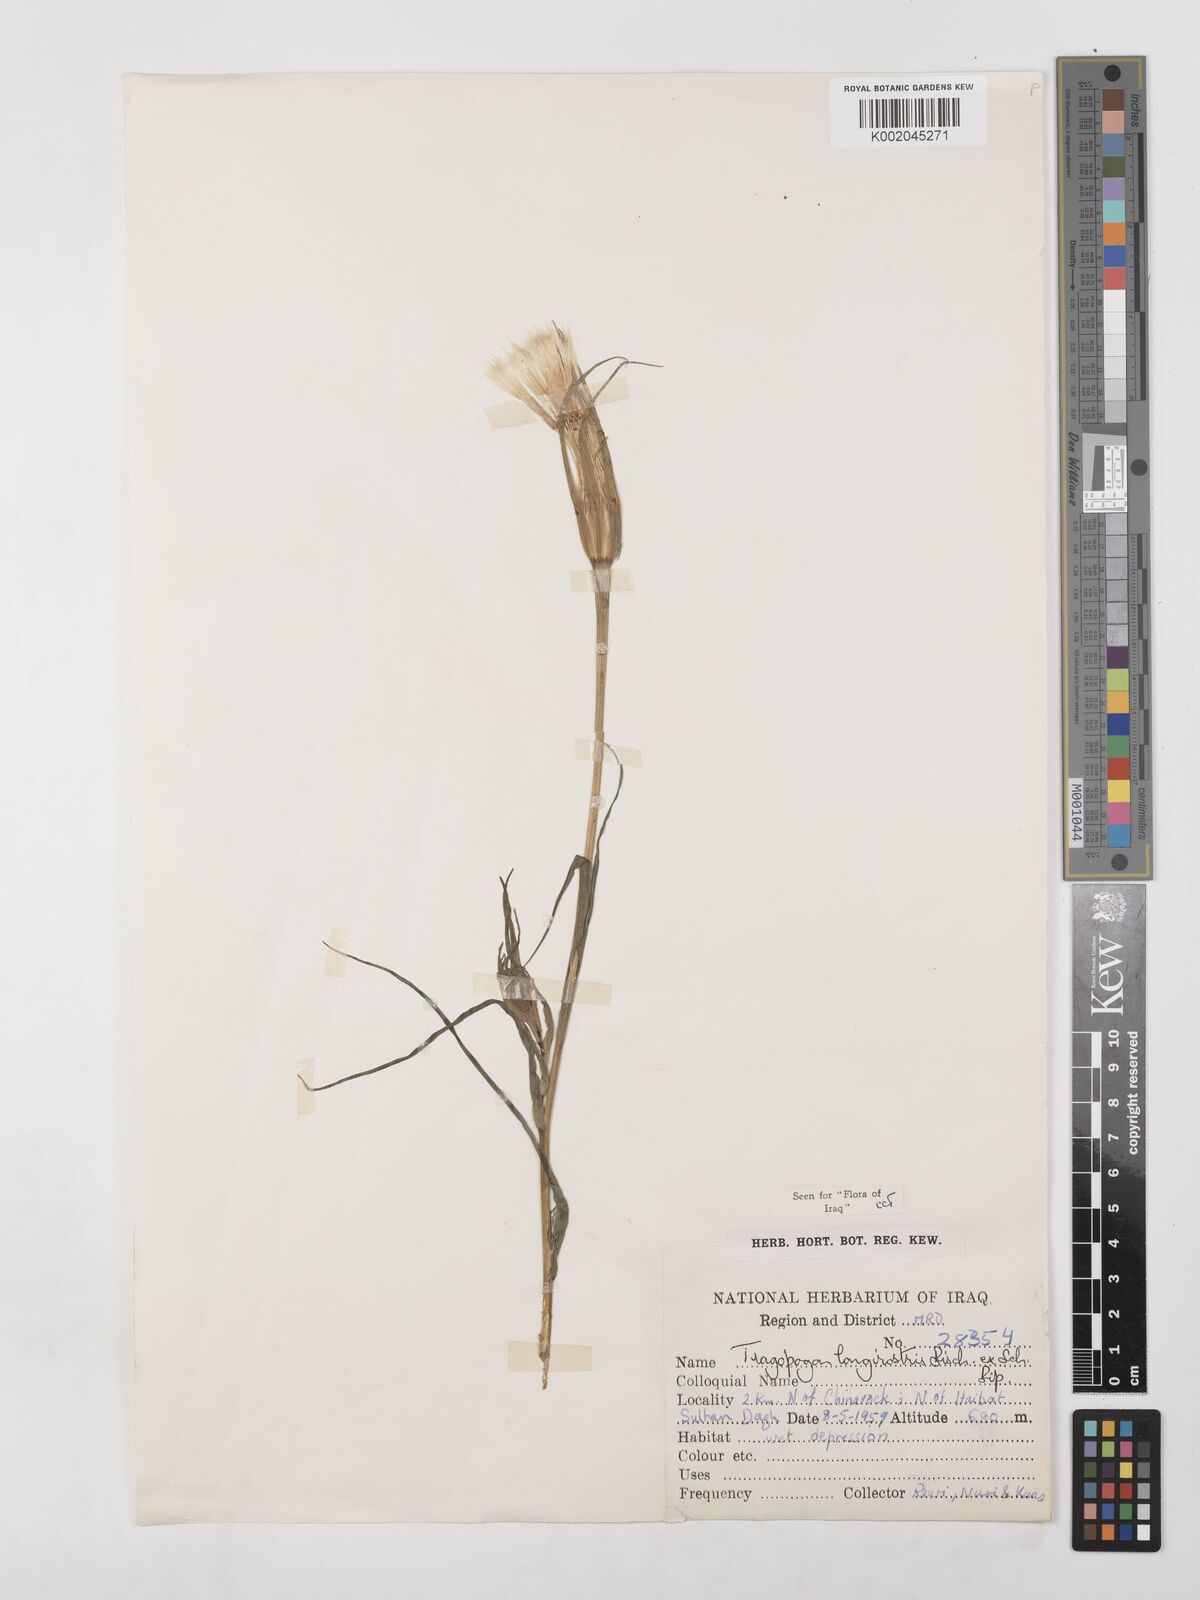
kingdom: Plantae
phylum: Tracheophyta
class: Magnoliopsida
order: Asterales
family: Asteraceae
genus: Tragopogon
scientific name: Tragopogon coelesyriacus
